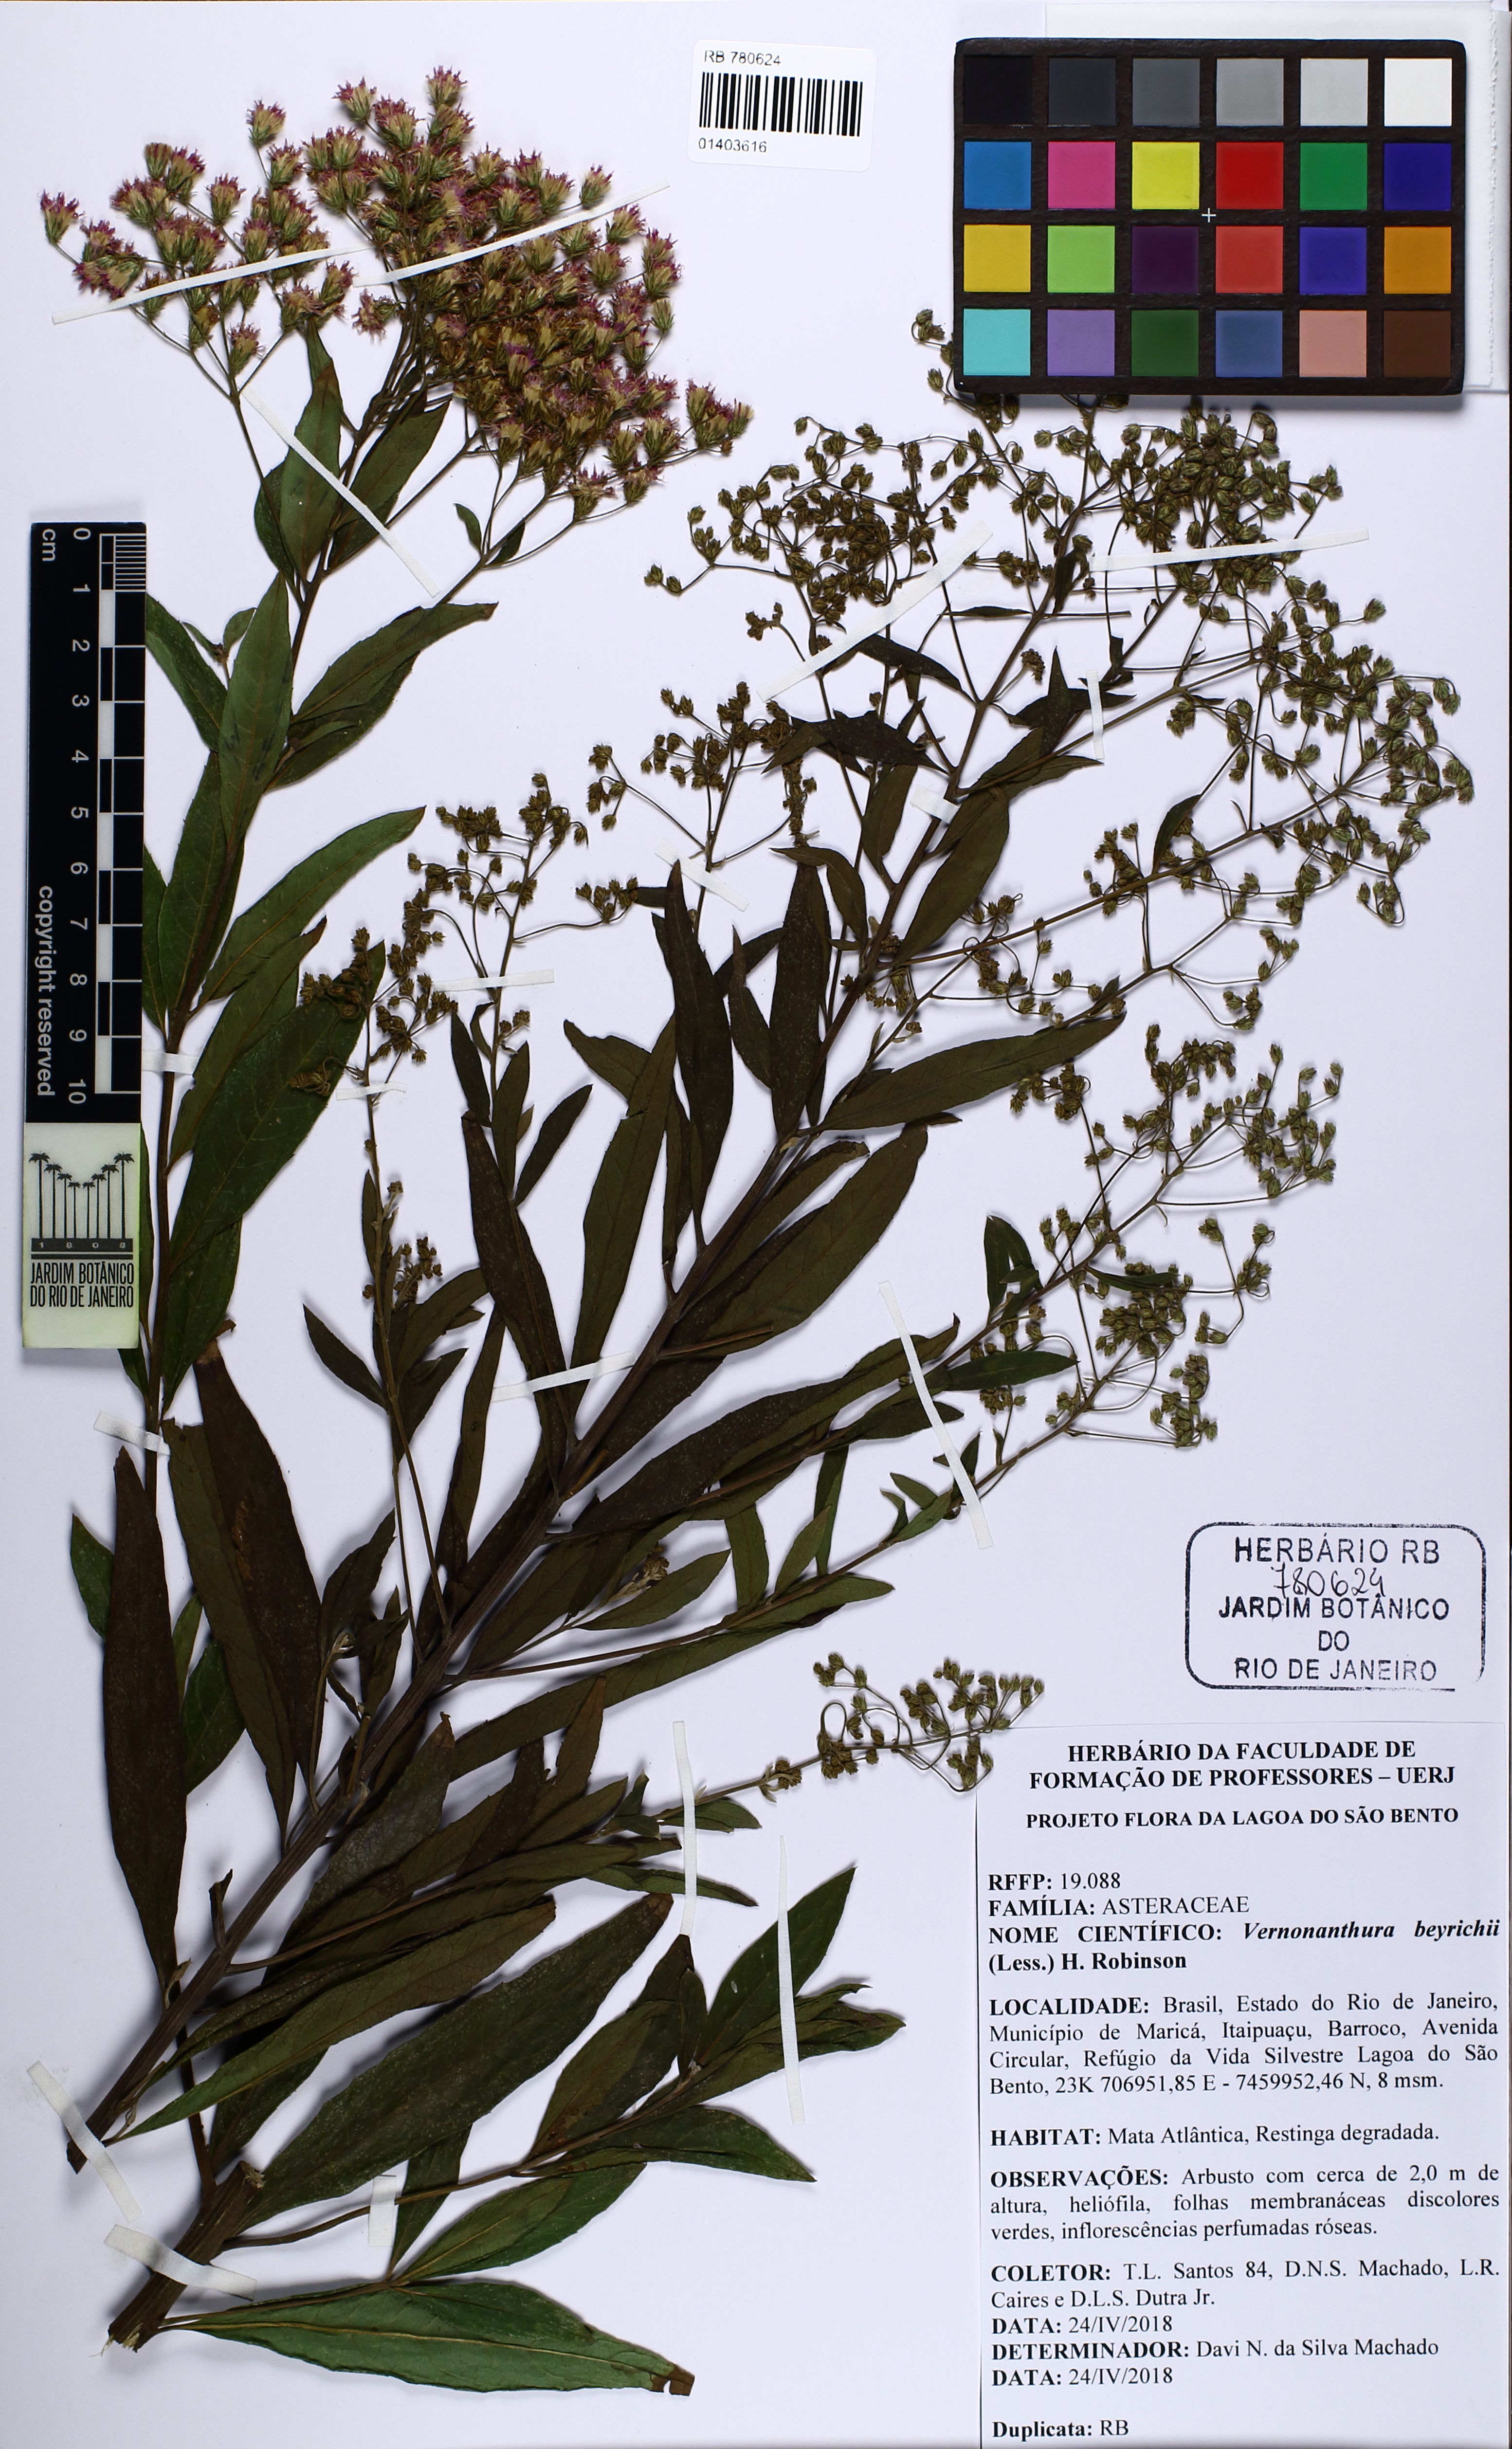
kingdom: Plantae
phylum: Tracheophyta
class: Magnoliopsida
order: Asterales
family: Asteraceae
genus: Vernonanthura
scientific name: Vernonanthura beyrichii
